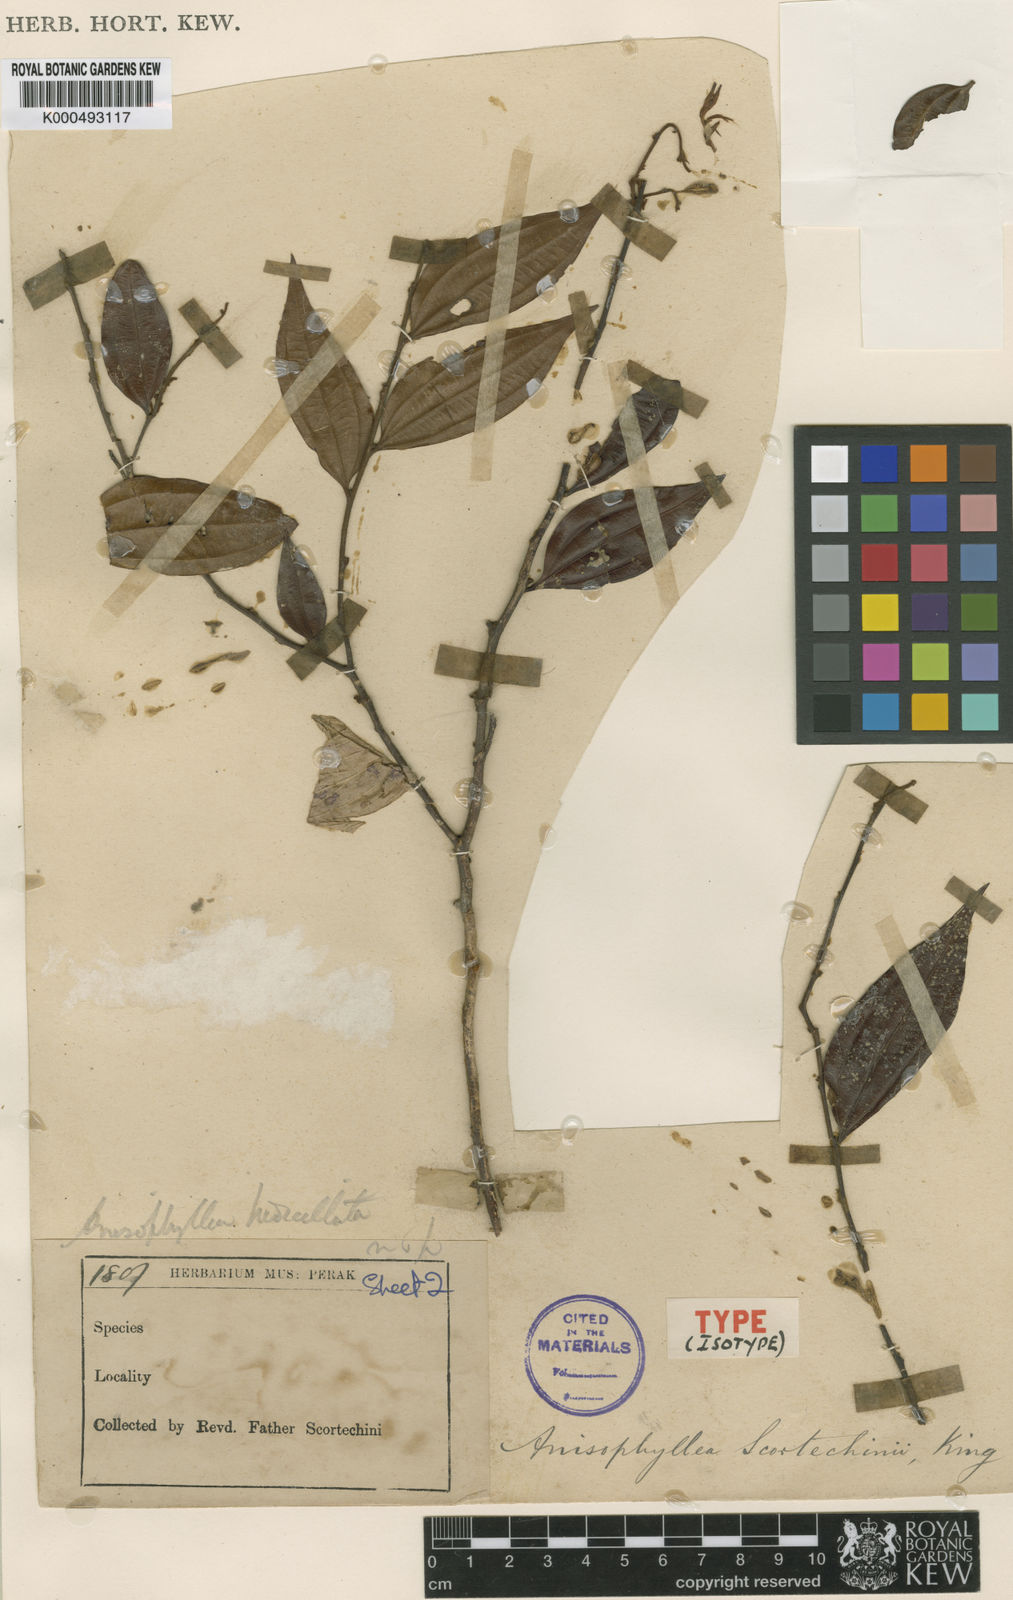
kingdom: Plantae
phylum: Tracheophyta
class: Magnoliopsida
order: Cucurbitales
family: Anisophylleaceae
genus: Anisophyllea
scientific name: Anisophyllea scortechinii
